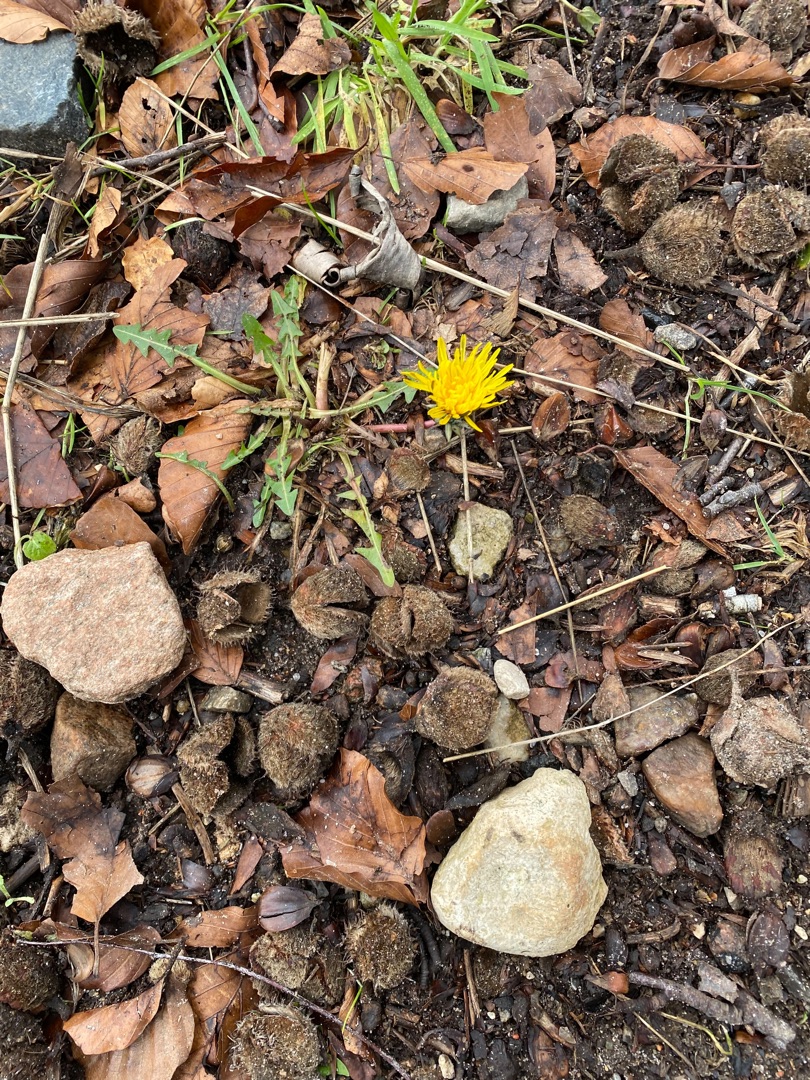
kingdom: Plantae
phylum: Tracheophyta
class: Magnoliopsida
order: Asterales
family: Asteraceae
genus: Taraxacum
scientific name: Taraxacum
